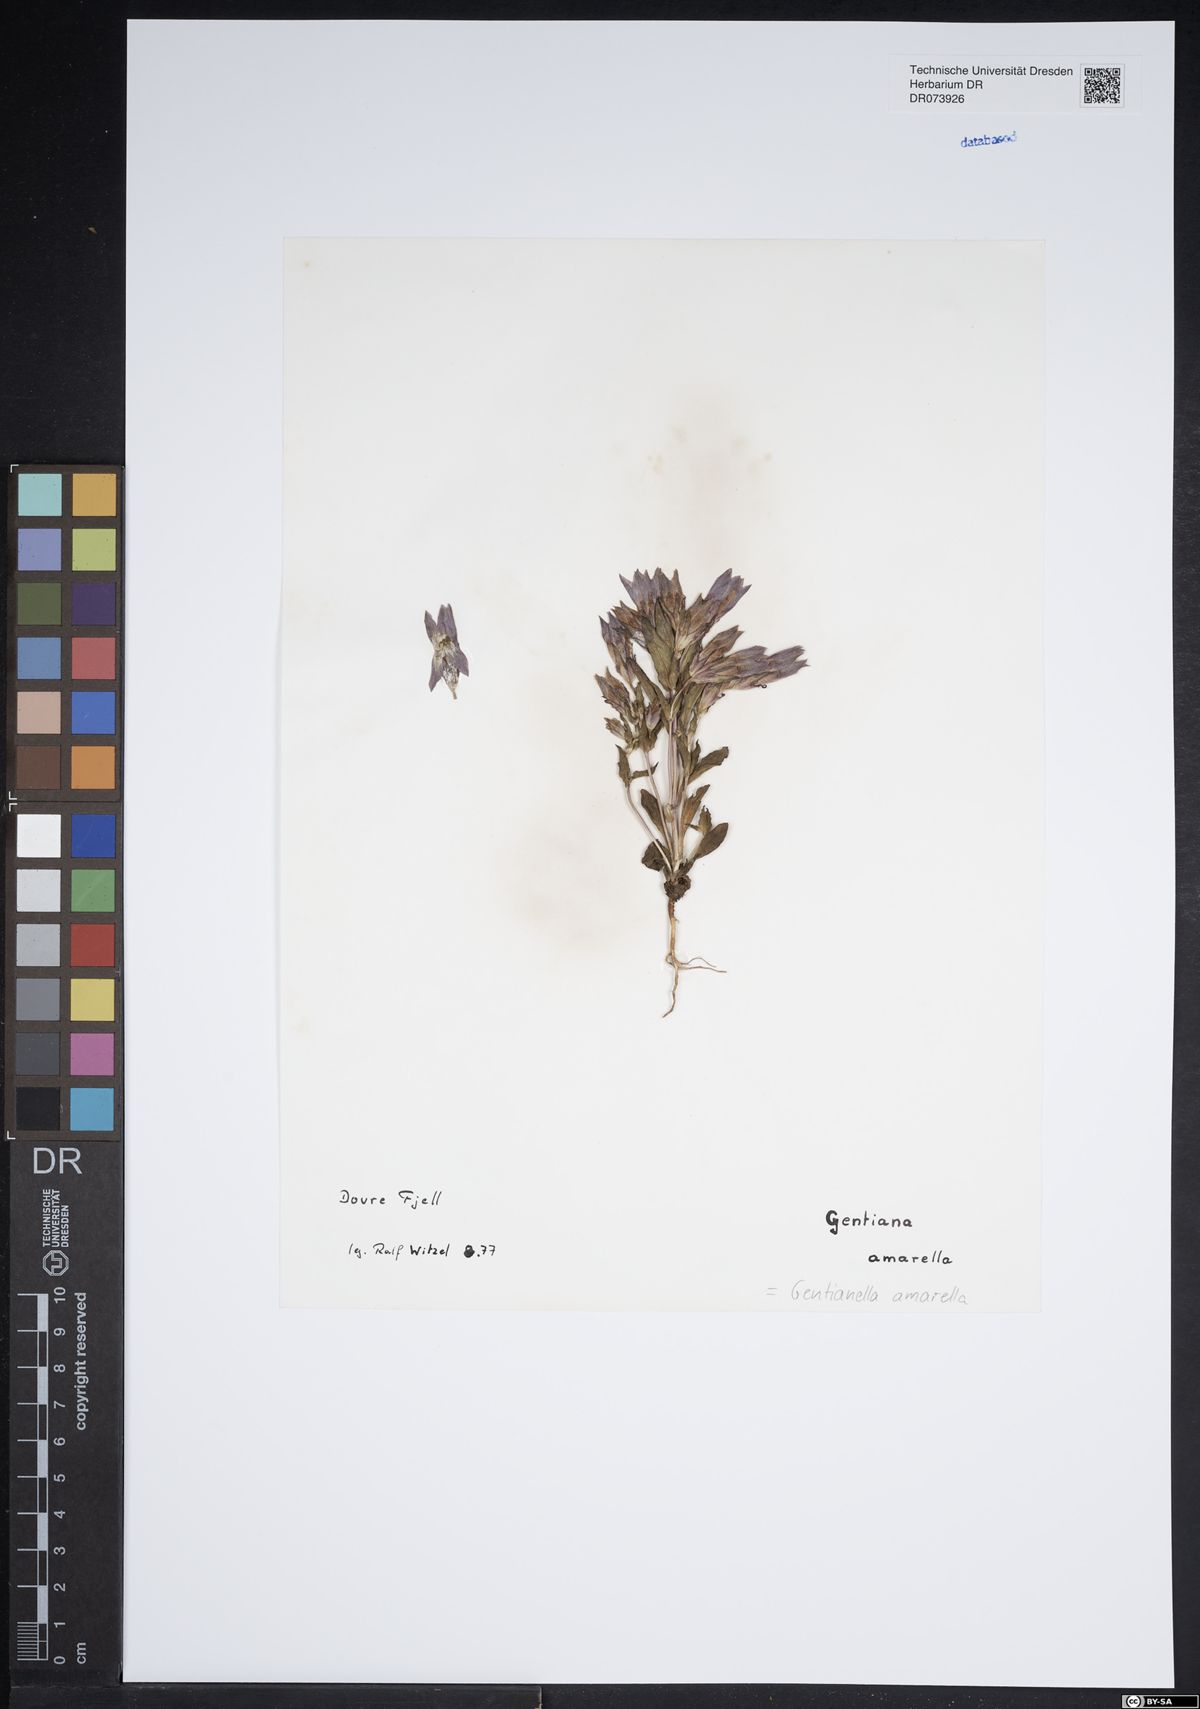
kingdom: Plantae
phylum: Tracheophyta
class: Magnoliopsida
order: Gentianales
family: Gentianaceae
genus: Gentianella
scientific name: Gentianella amarella
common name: Autumn gentian
